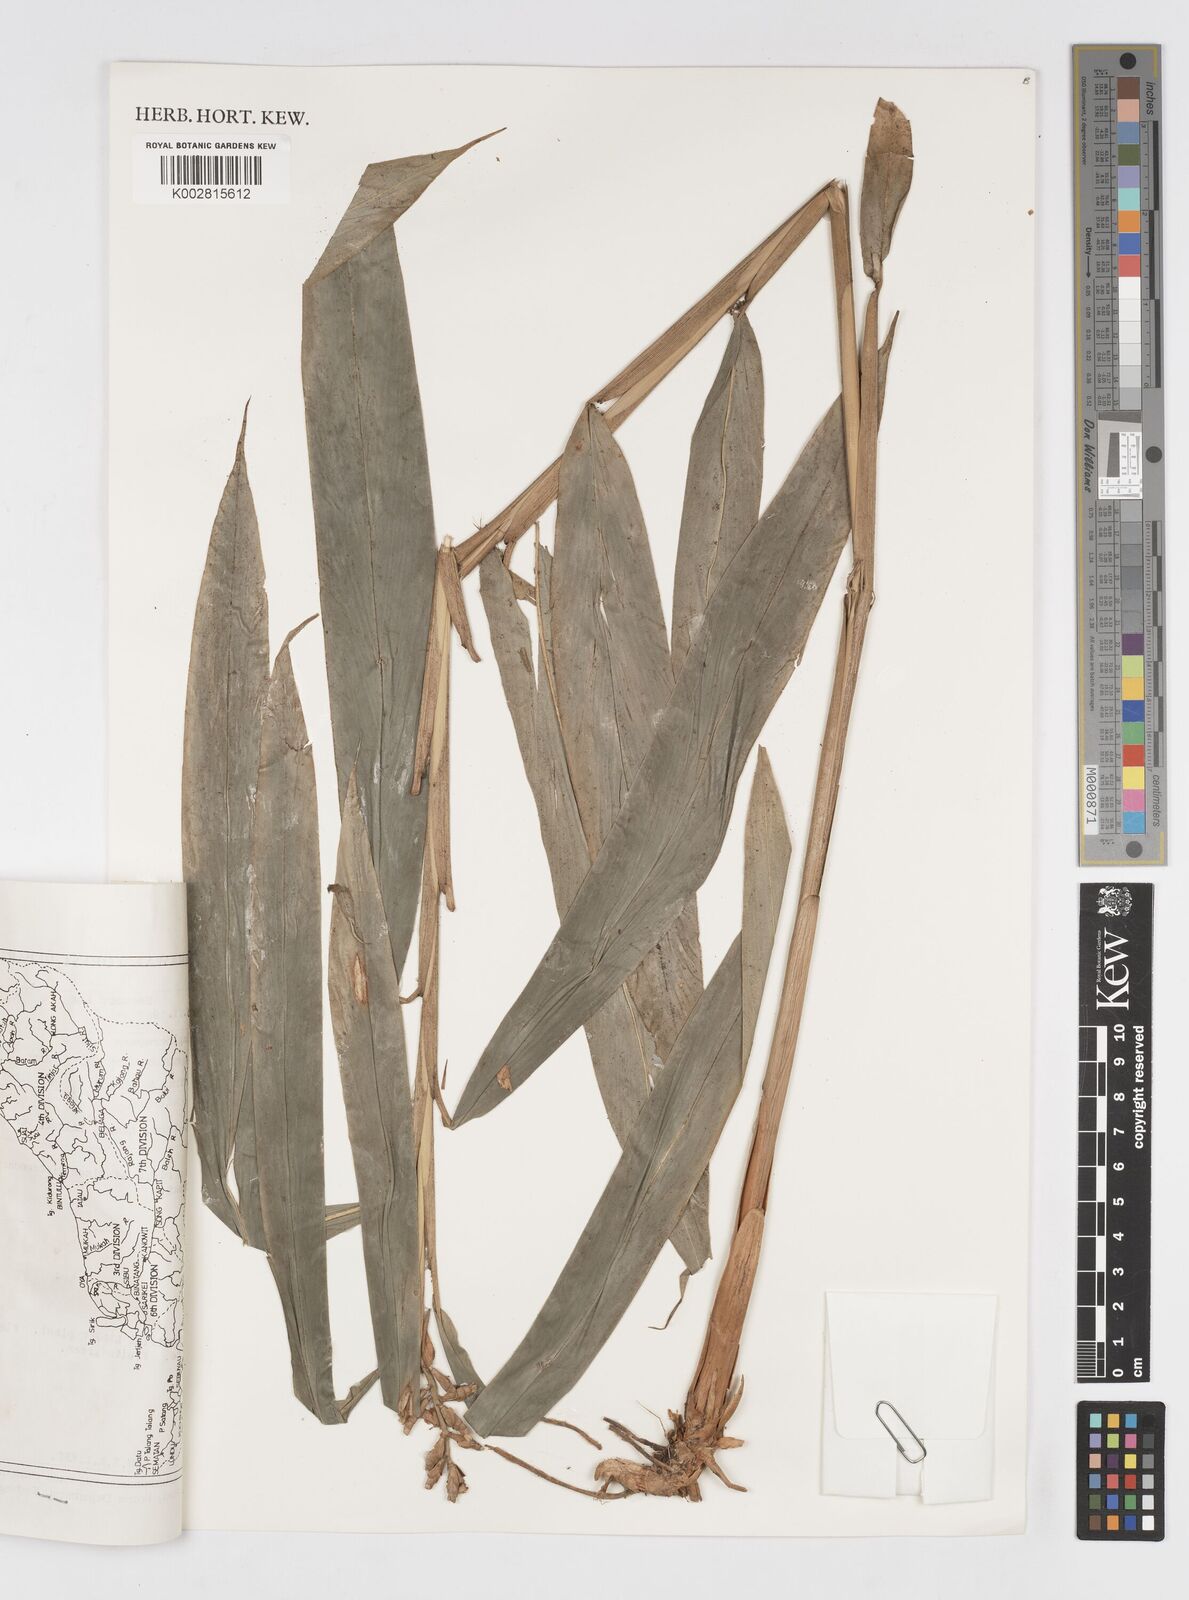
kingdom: Plantae
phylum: Tracheophyta
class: Liliopsida
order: Zingiberales
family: Zingiberaceae
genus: Alpinia
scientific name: Alpinia scabra
